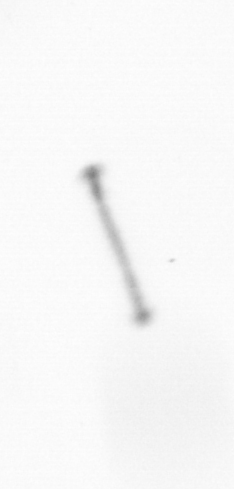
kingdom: Chromista
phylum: Ochrophyta
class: Bacillariophyceae
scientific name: Bacillariophyceae
